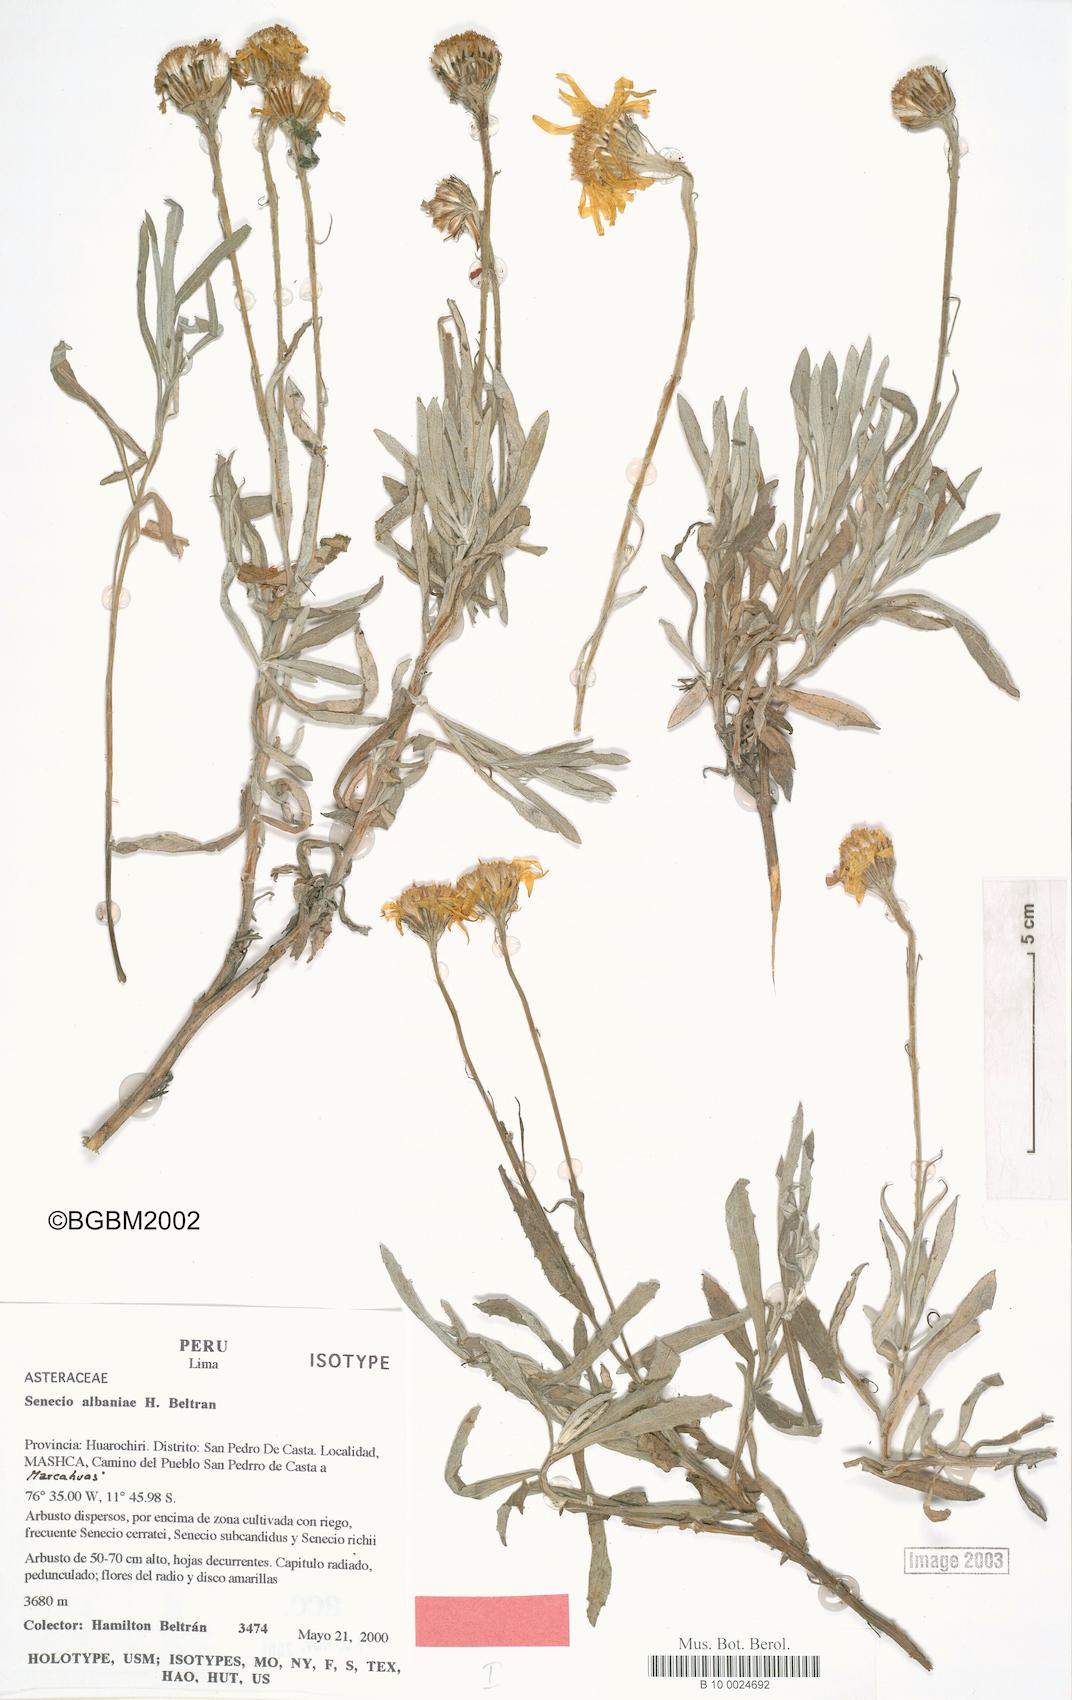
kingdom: Plantae
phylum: Tracheophyta
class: Magnoliopsida
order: Asterales
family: Asteraceae
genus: Lomanthus
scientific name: Lomanthus albaniae
